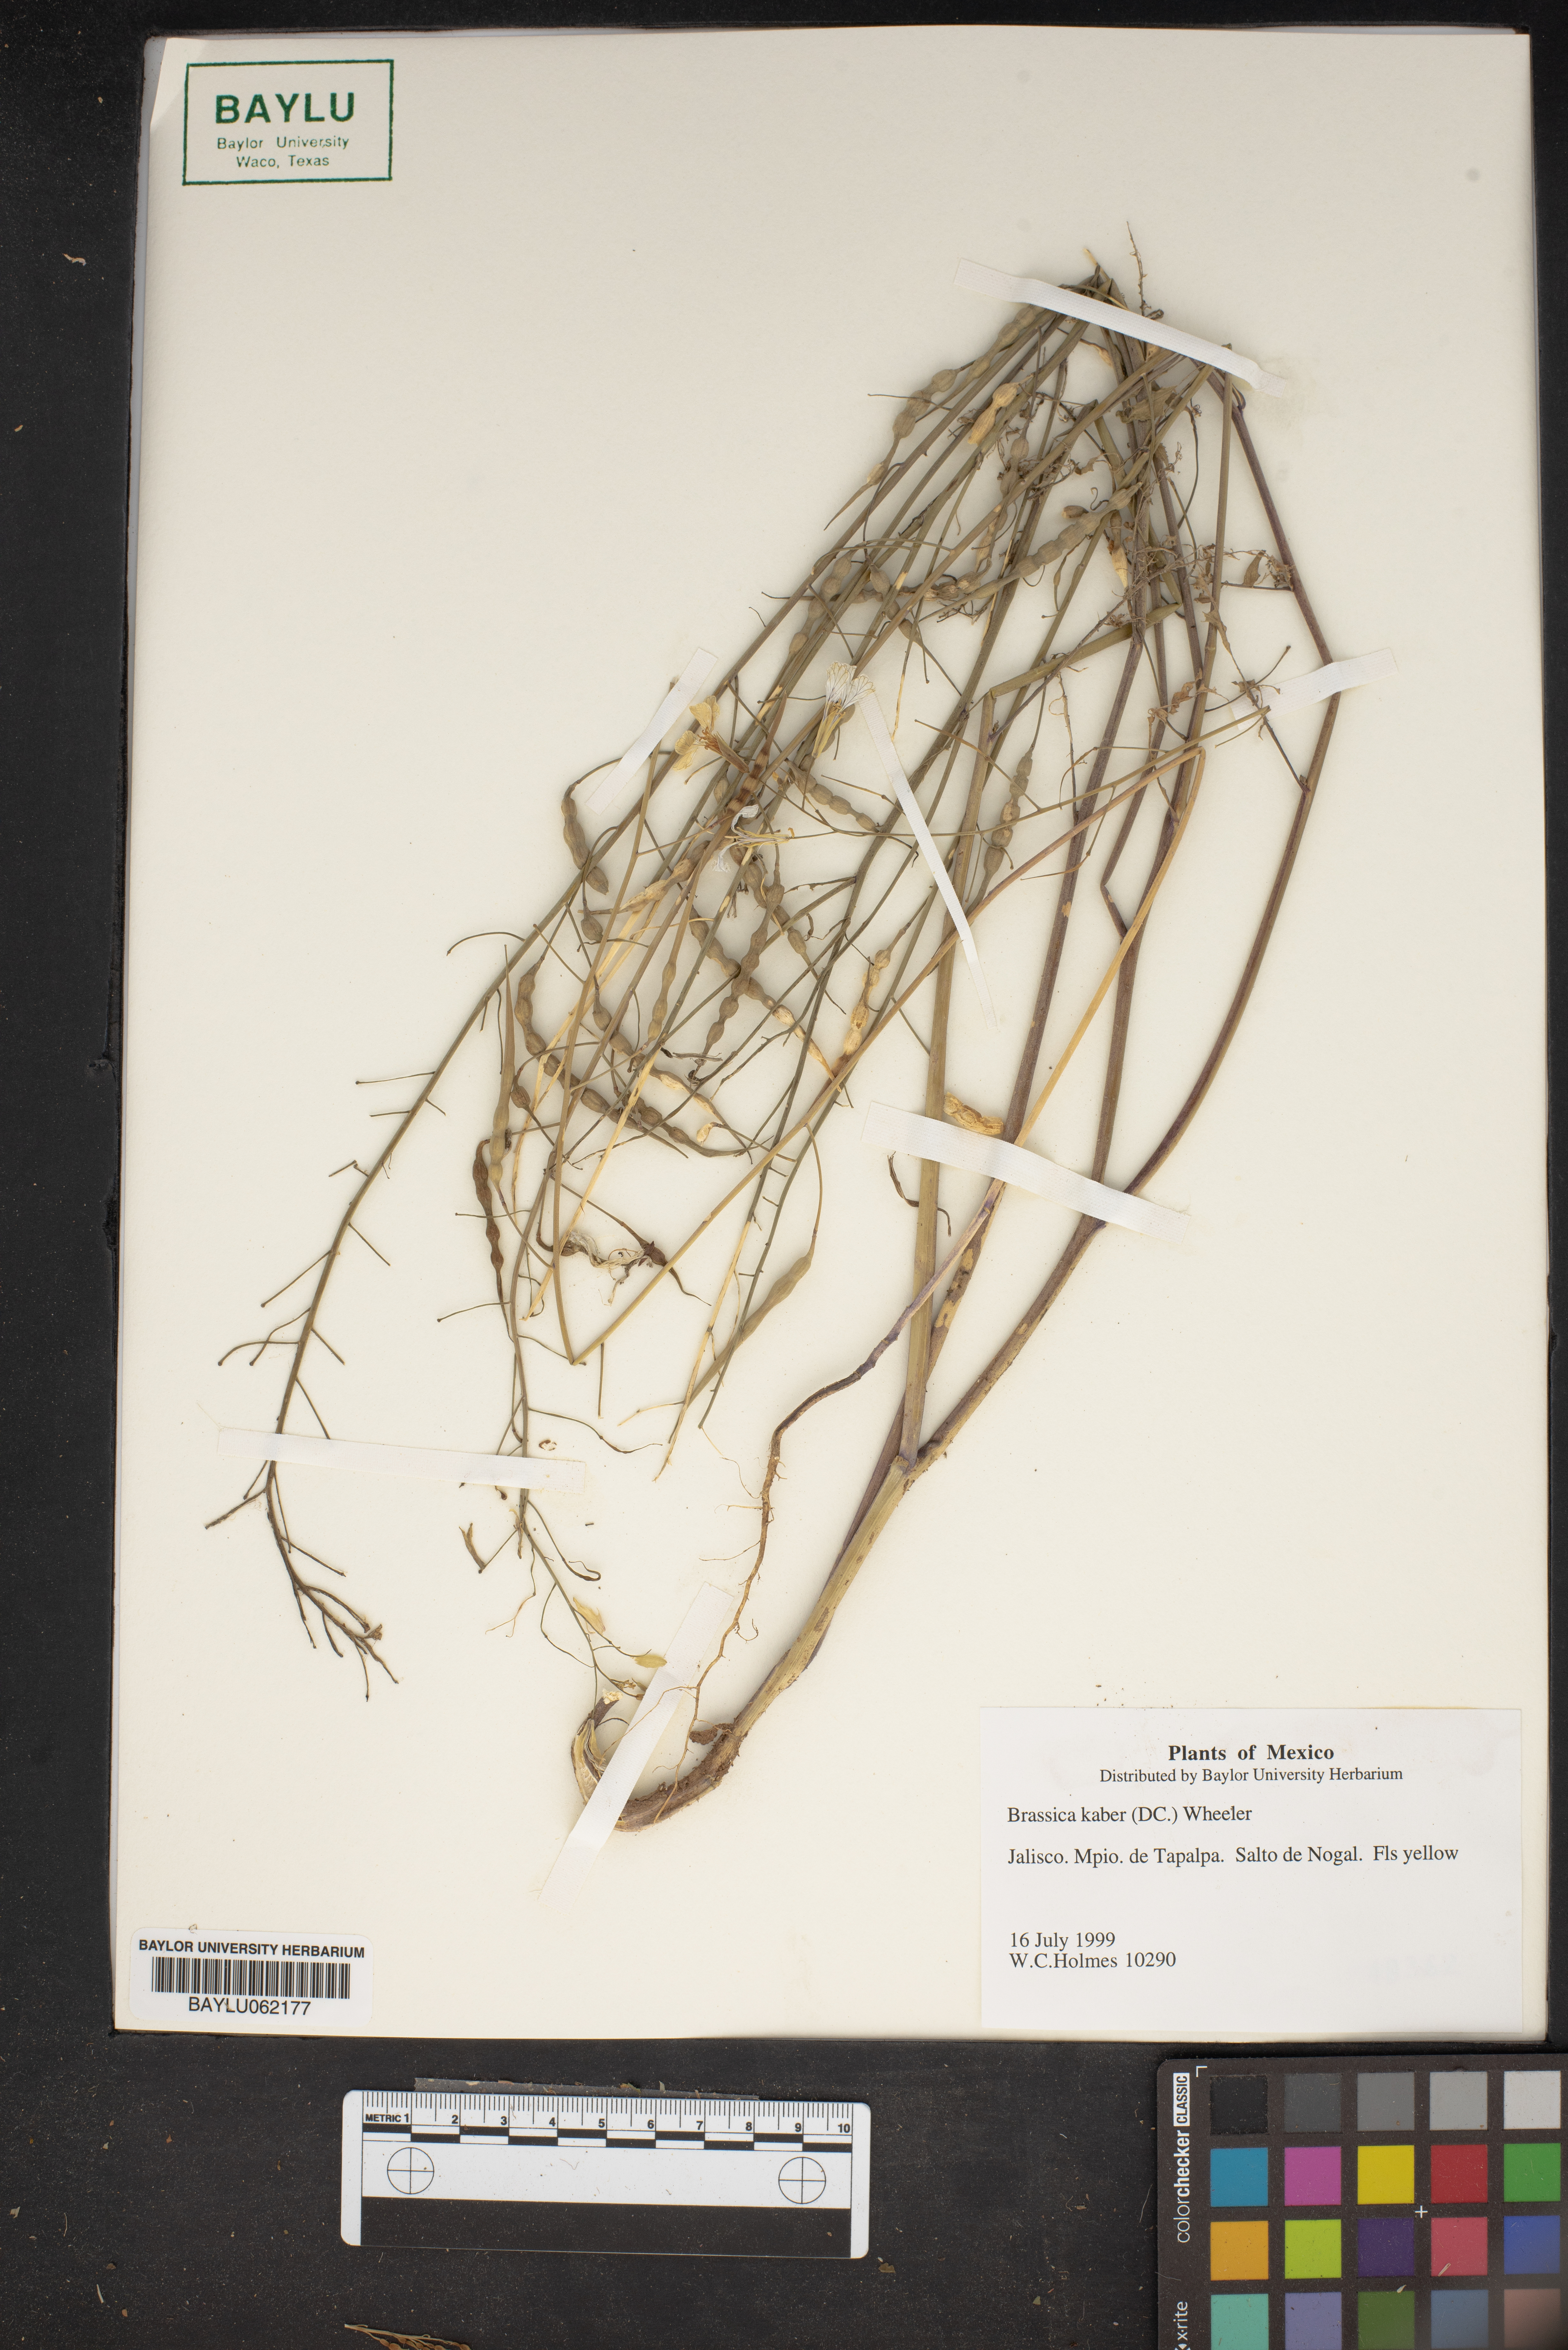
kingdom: Plantae
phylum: Tracheophyta
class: Magnoliopsida
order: Brassicales
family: Brassicaceae
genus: Sinapis
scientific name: Sinapis arvensis
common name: Charlock
